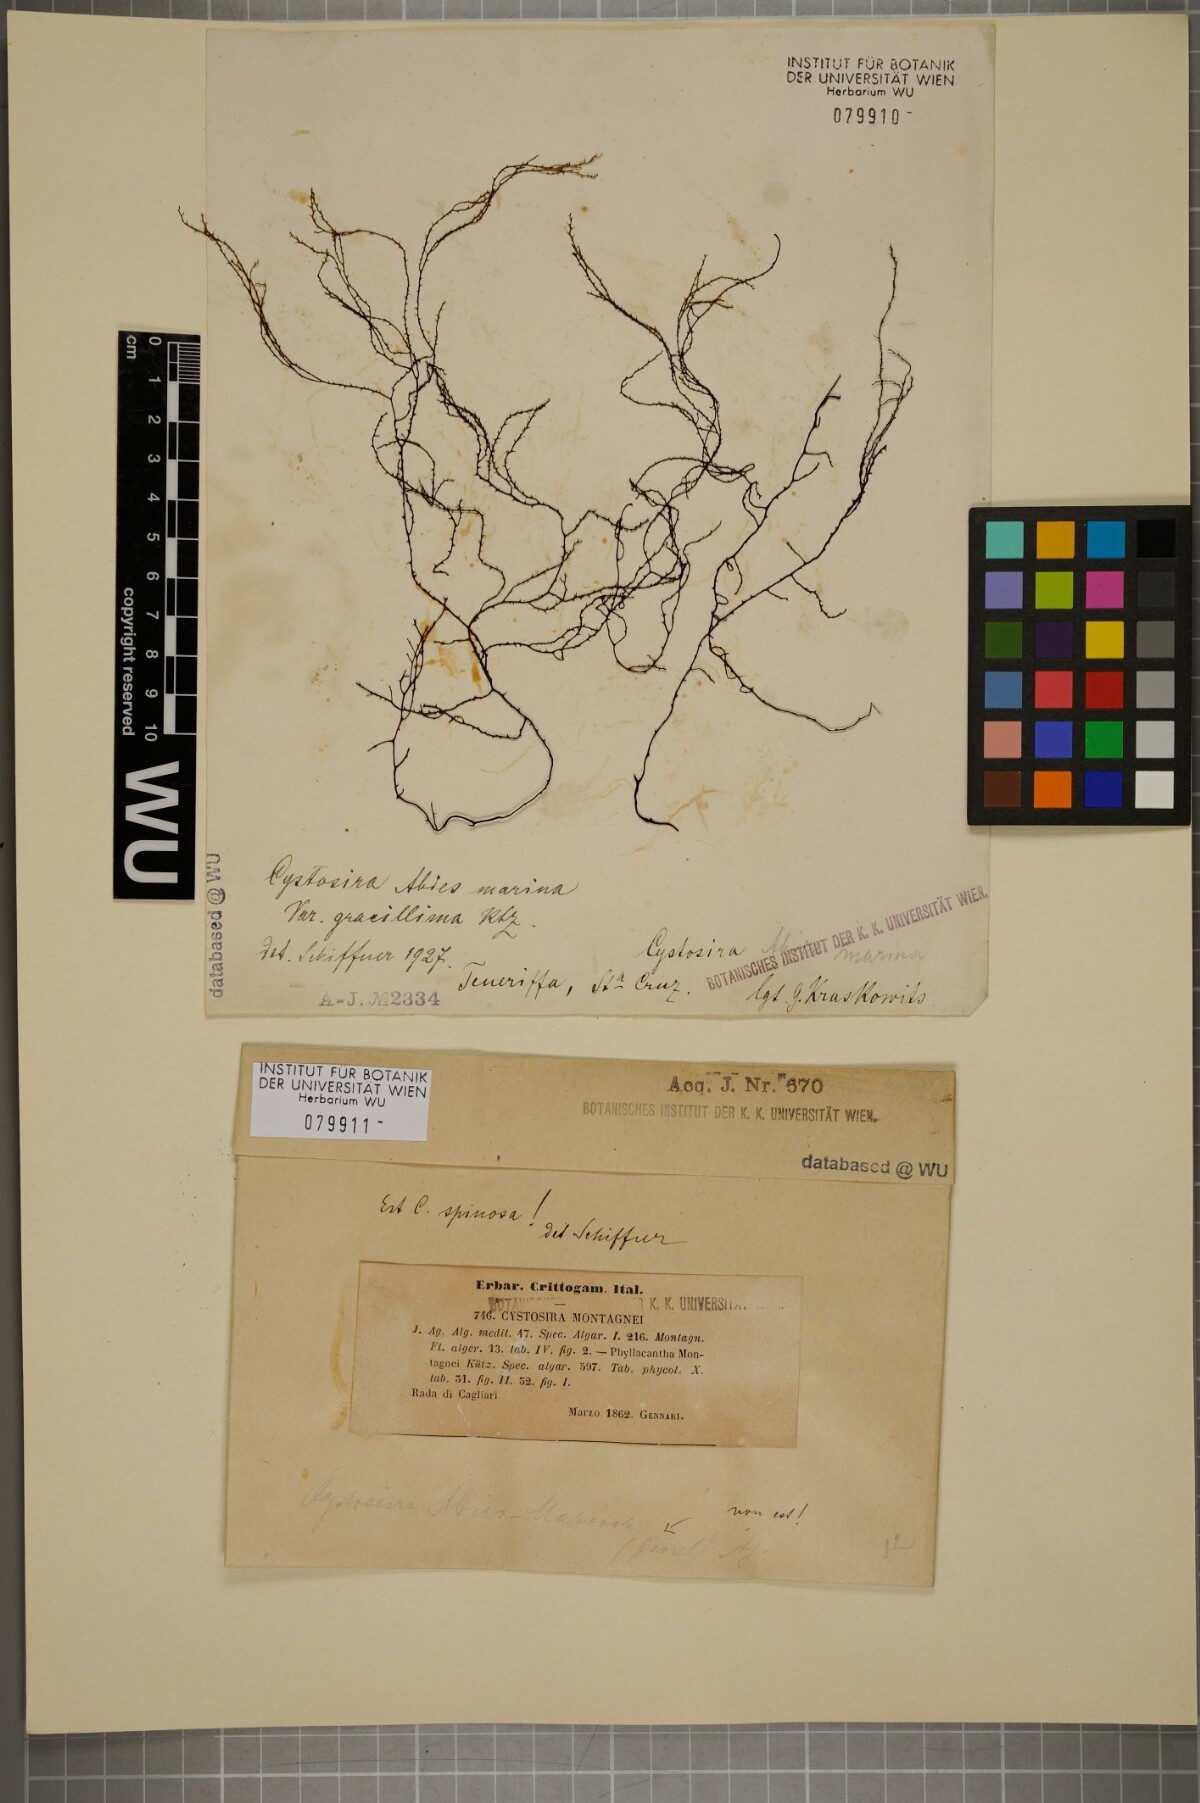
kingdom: Chromista
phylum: Ochrophyta
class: Phaeophyceae
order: Fucales
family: Sargassaceae
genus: Cystoseira
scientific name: Cystoseira Gongolaria montagnei
